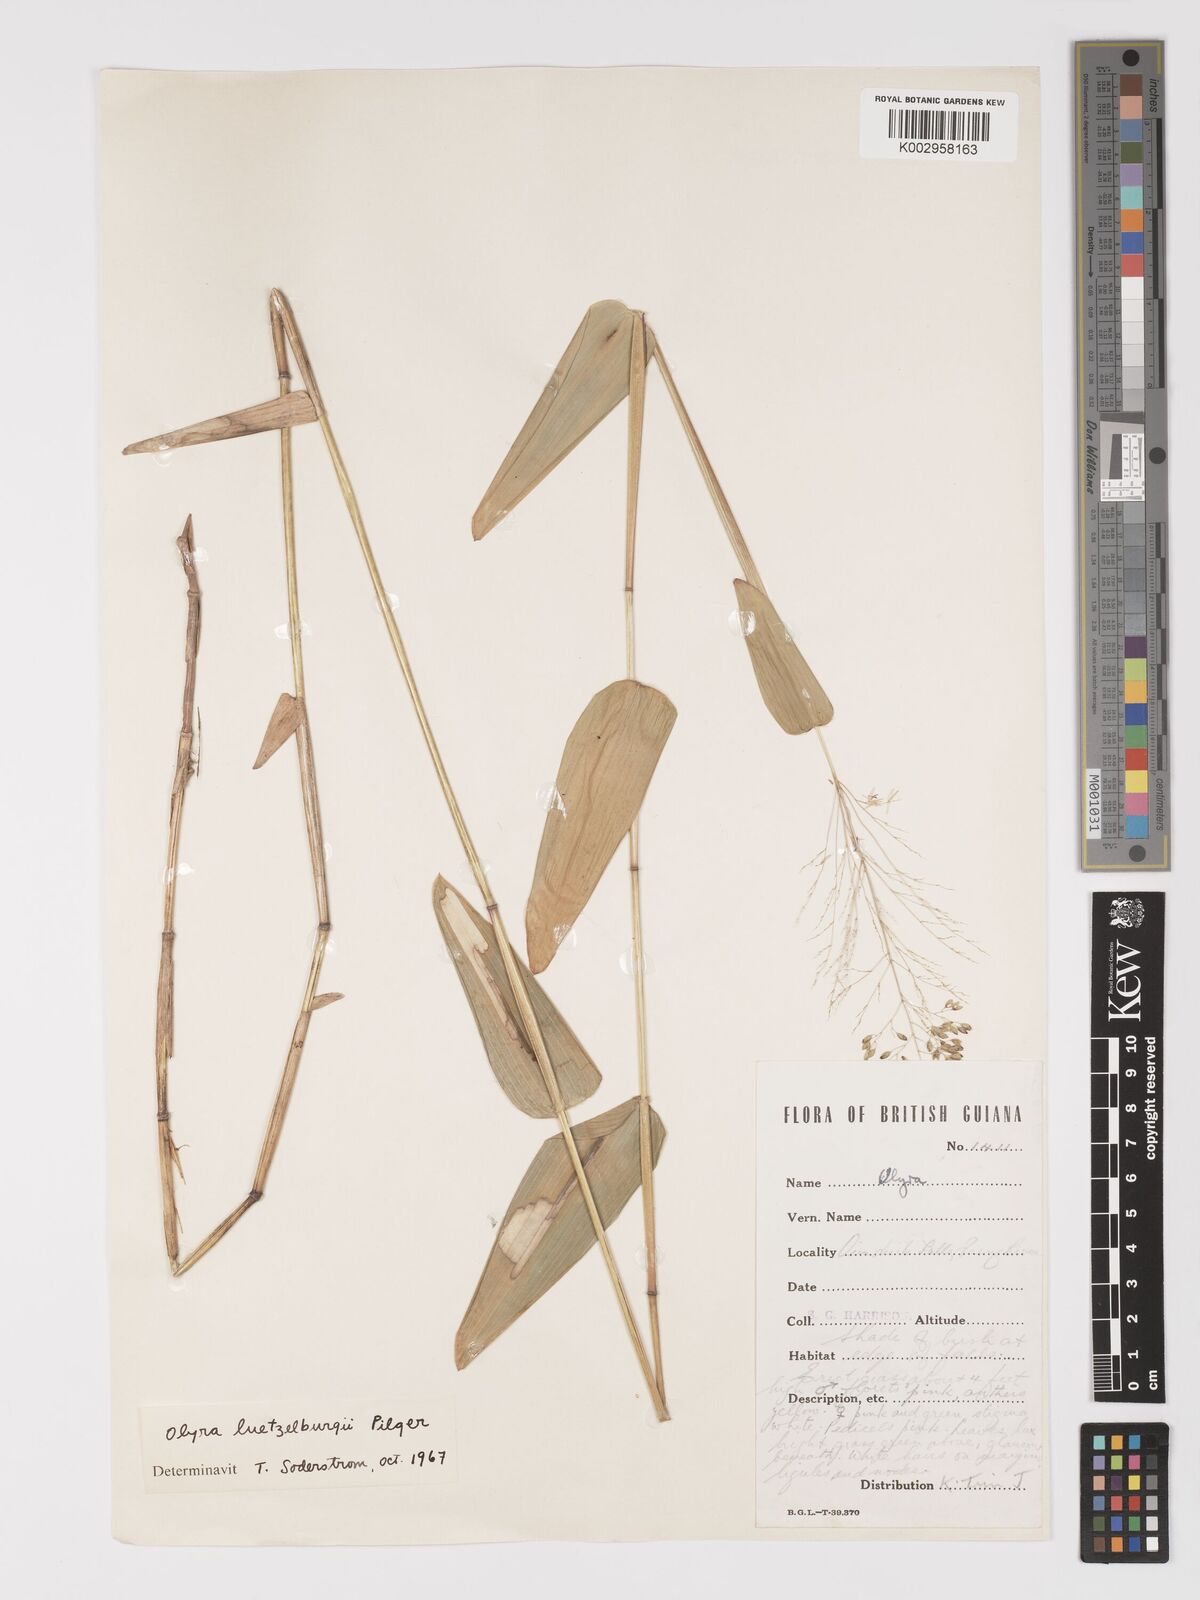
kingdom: Plantae
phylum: Tracheophyta
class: Liliopsida
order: Poales
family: Poaceae
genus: Parodiolyra
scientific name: Parodiolyra luetzelburgii
